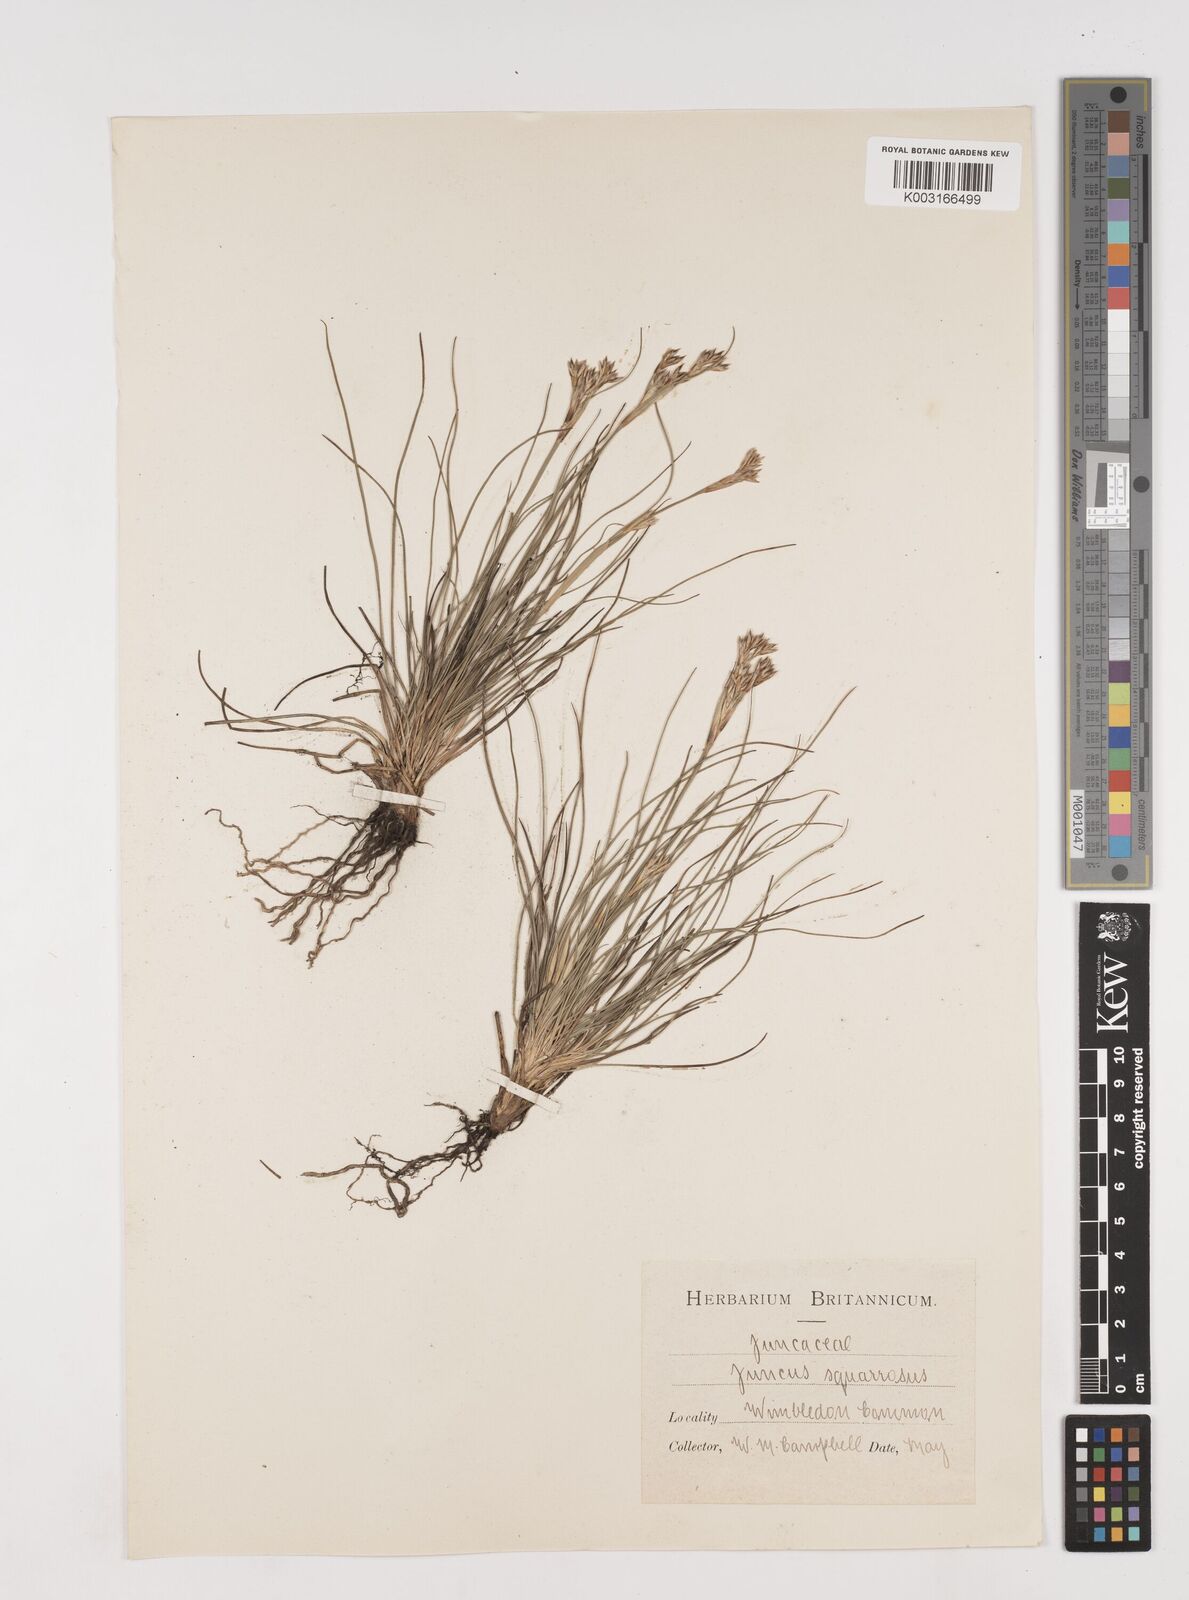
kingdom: Plantae
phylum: Tracheophyta
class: Liliopsida
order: Poales
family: Juncaceae
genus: Juncus
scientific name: Juncus squarrosus
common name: Heath rush
